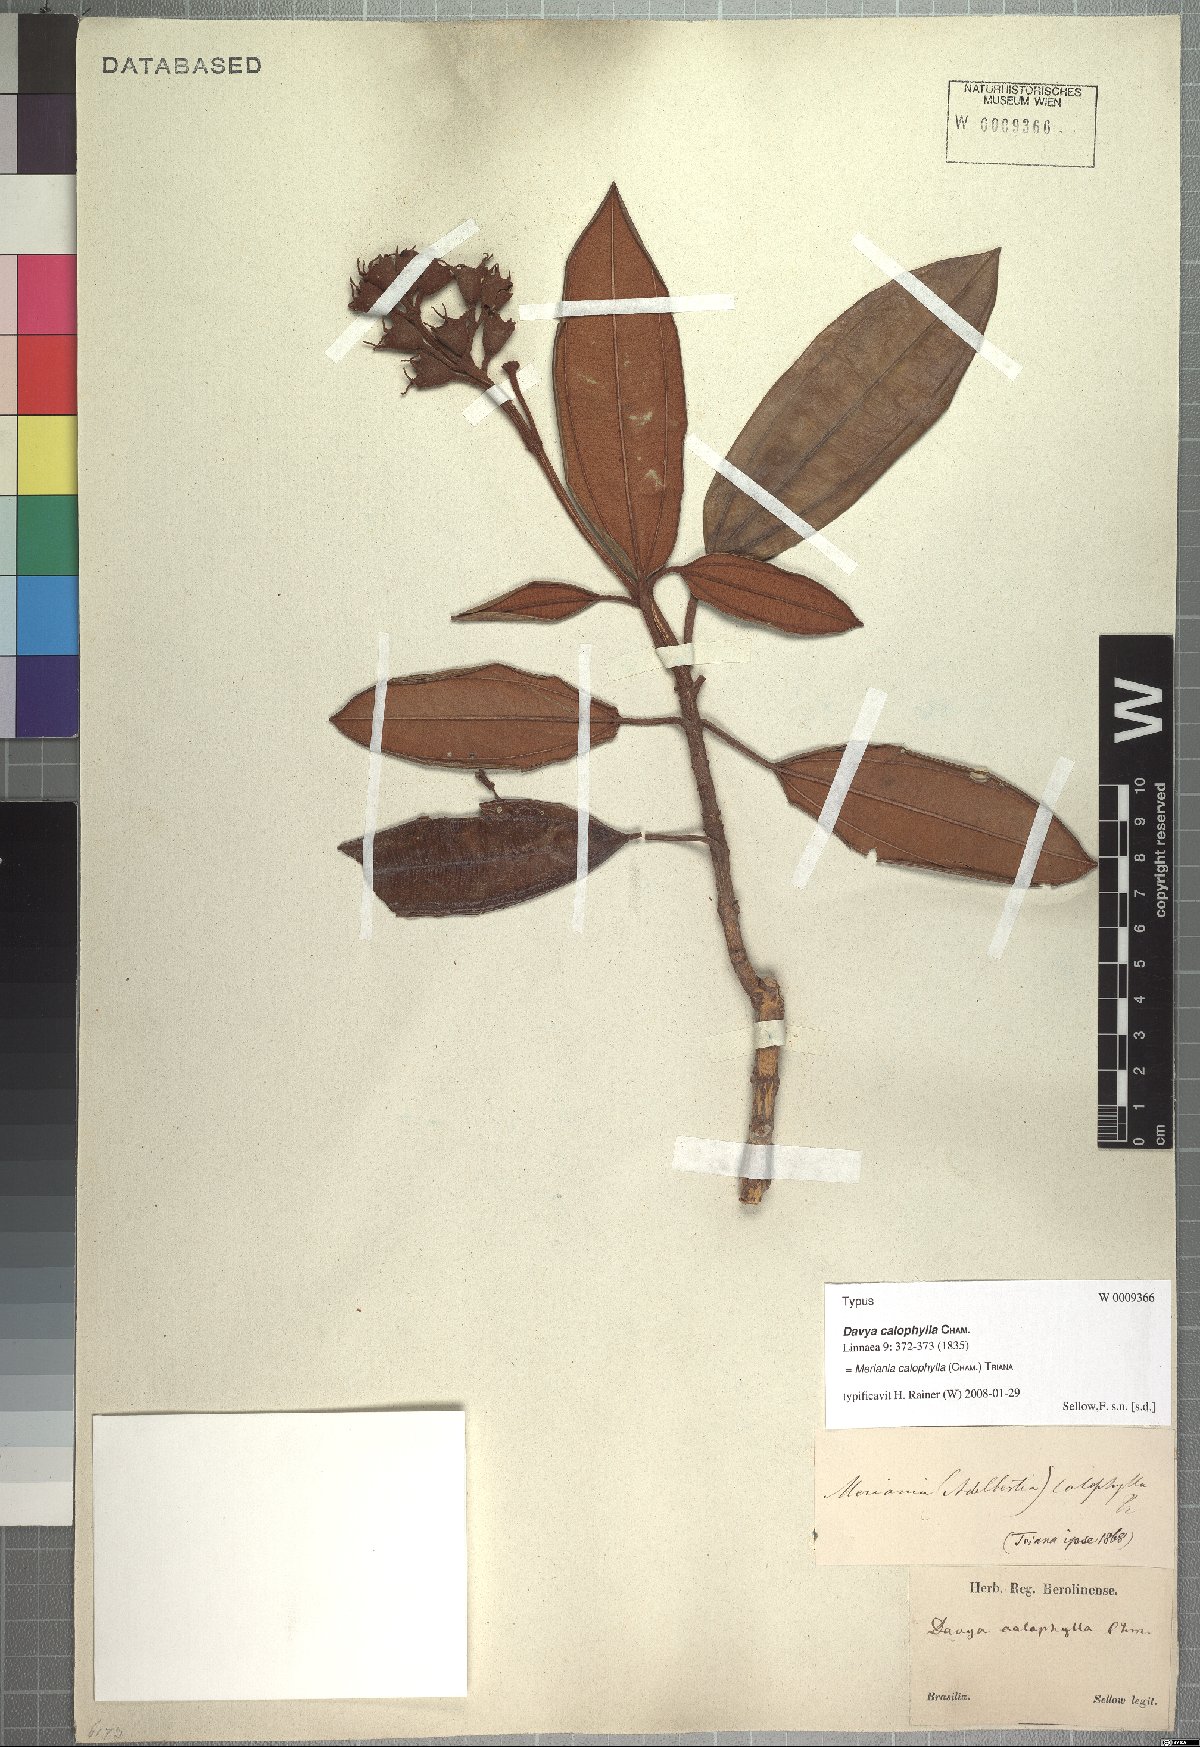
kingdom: Plantae
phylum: Tracheophyta
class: Magnoliopsida
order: Myrtales
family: Melastomataceae
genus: Meriania
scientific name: Meriania calophylla
